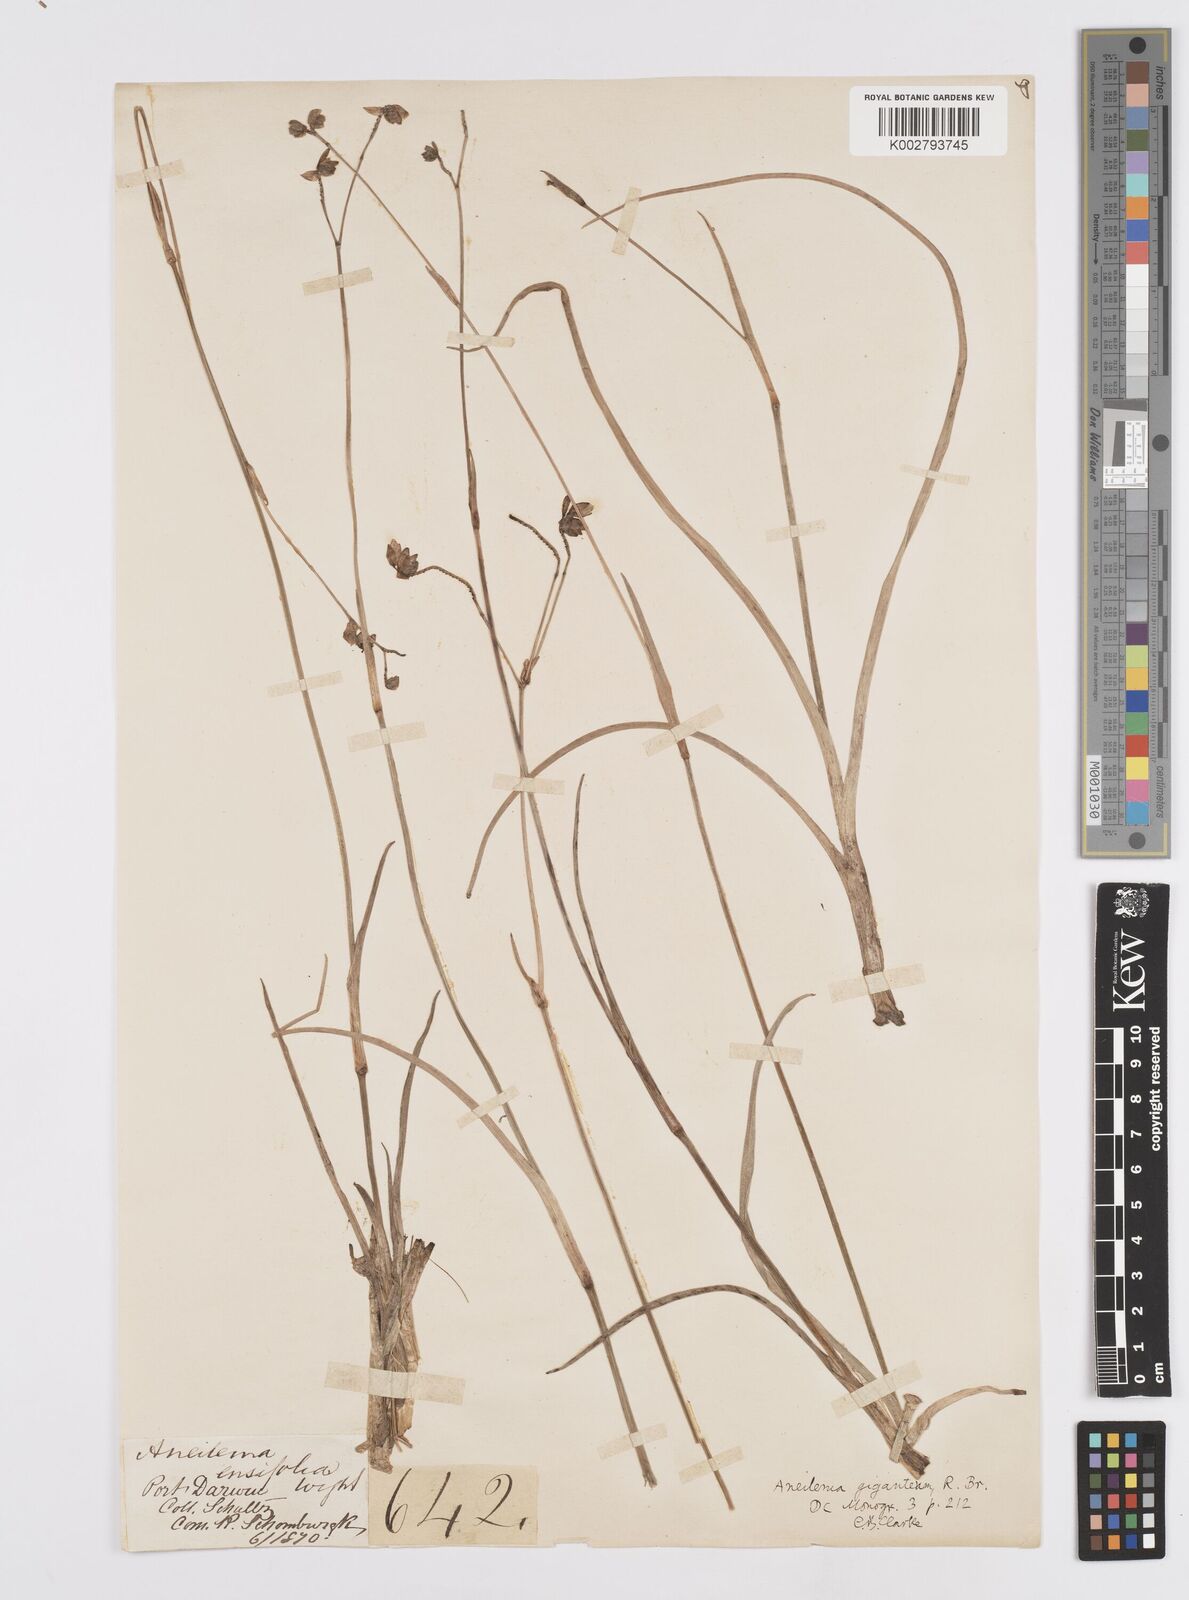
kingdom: Plantae
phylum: Tracheophyta
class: Liliopsida
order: Commelinales
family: Commelinaceae
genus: Murdannia
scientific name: Murdannia gigantea
